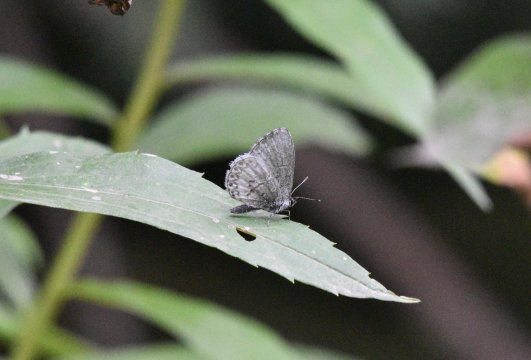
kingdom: Animalia
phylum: Arthropoda
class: Insecta
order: Lepidoptera
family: Lycaenidae
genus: Celastrina
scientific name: Celastrina lucia
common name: Northern Spring Azure
